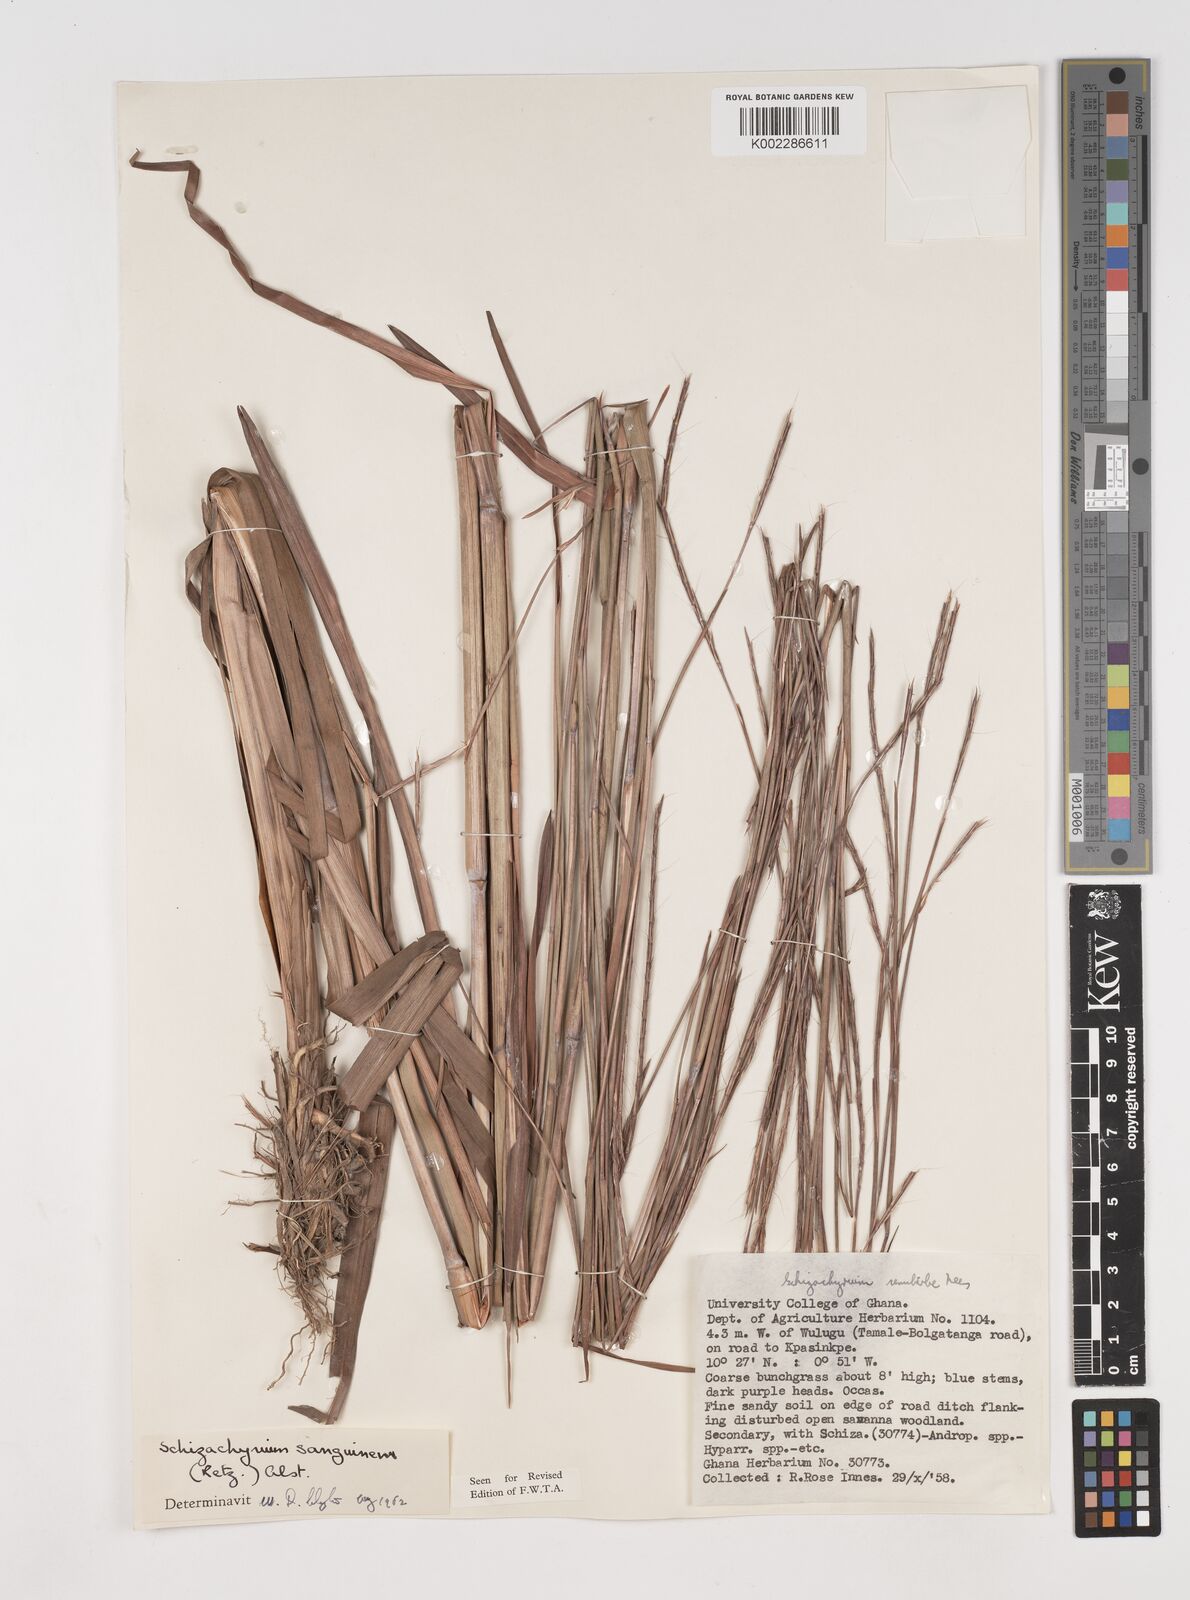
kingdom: Plantae
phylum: Tracheophyta
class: Liliopsida
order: Poales
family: Poaceae
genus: Schizachyrium
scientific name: Schizachyrium sanguineum
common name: Crimson bluestem
